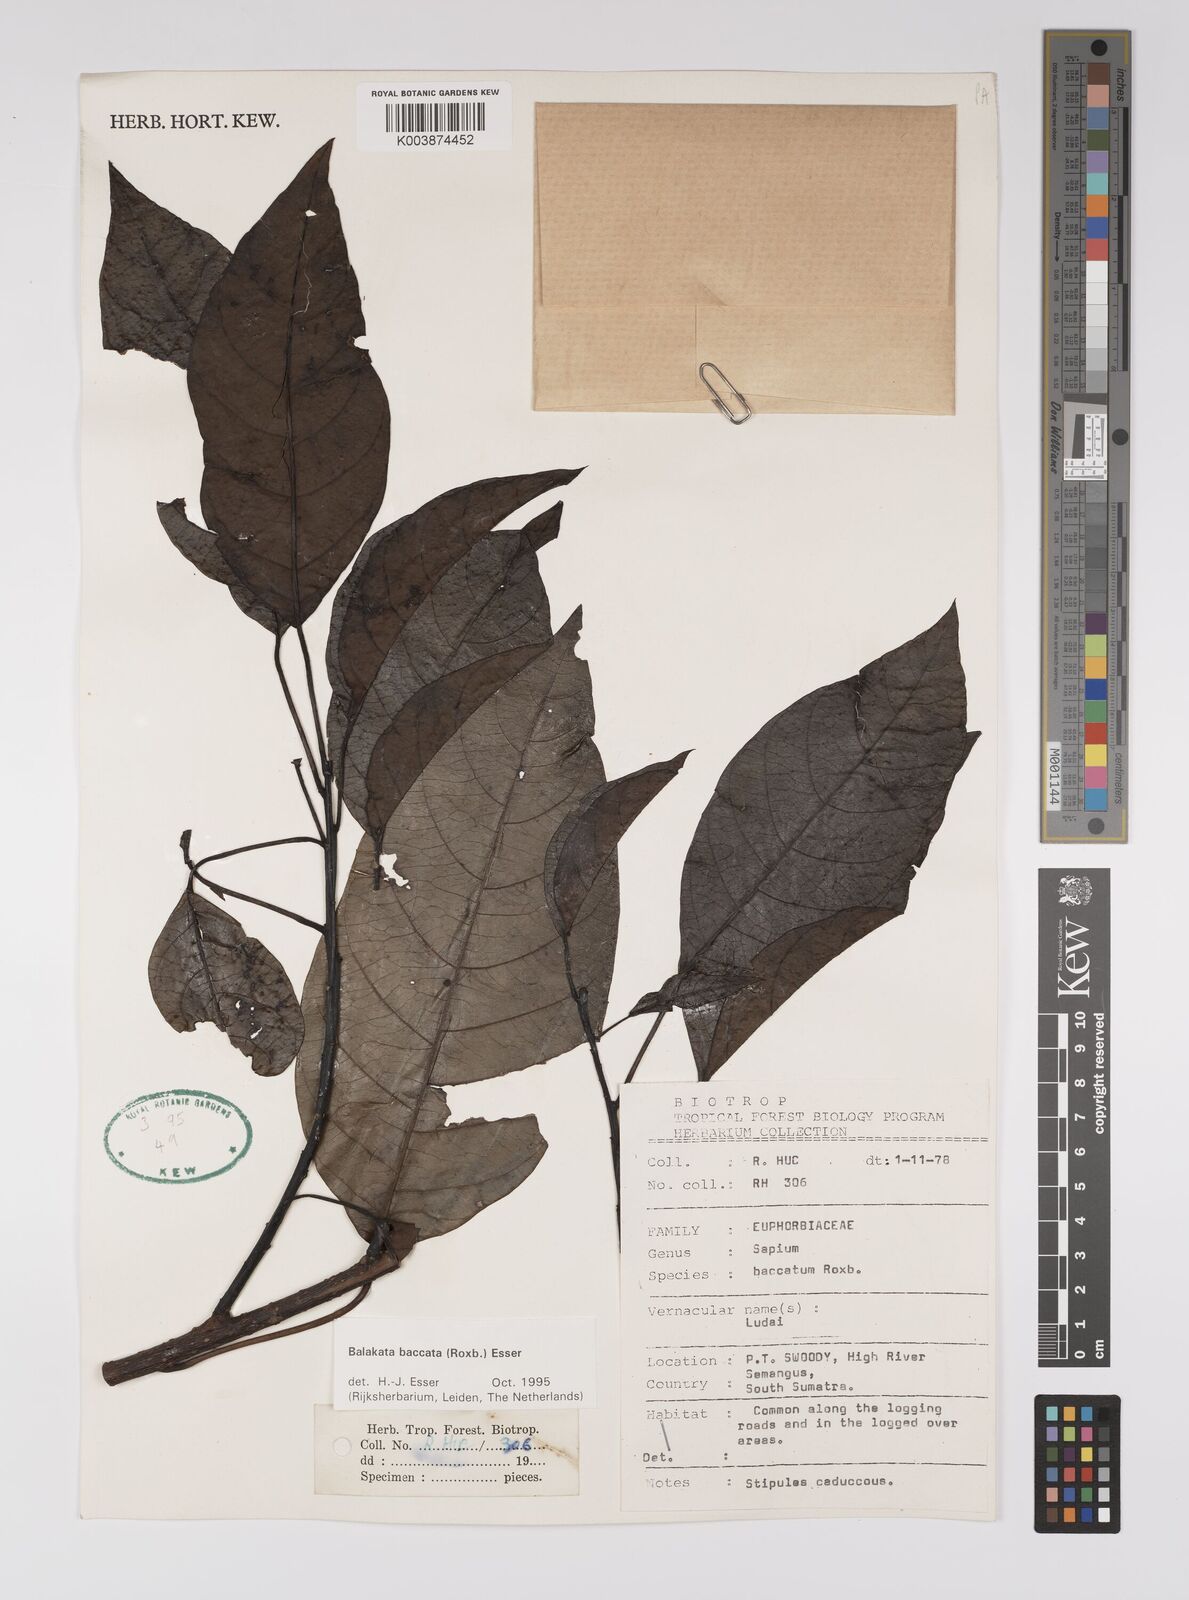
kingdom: Plantae
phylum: Tracheophyta
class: Magnoliopsida
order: Malpighiales
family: Euphorbiaceae
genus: Balakata
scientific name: Balakata baccata
